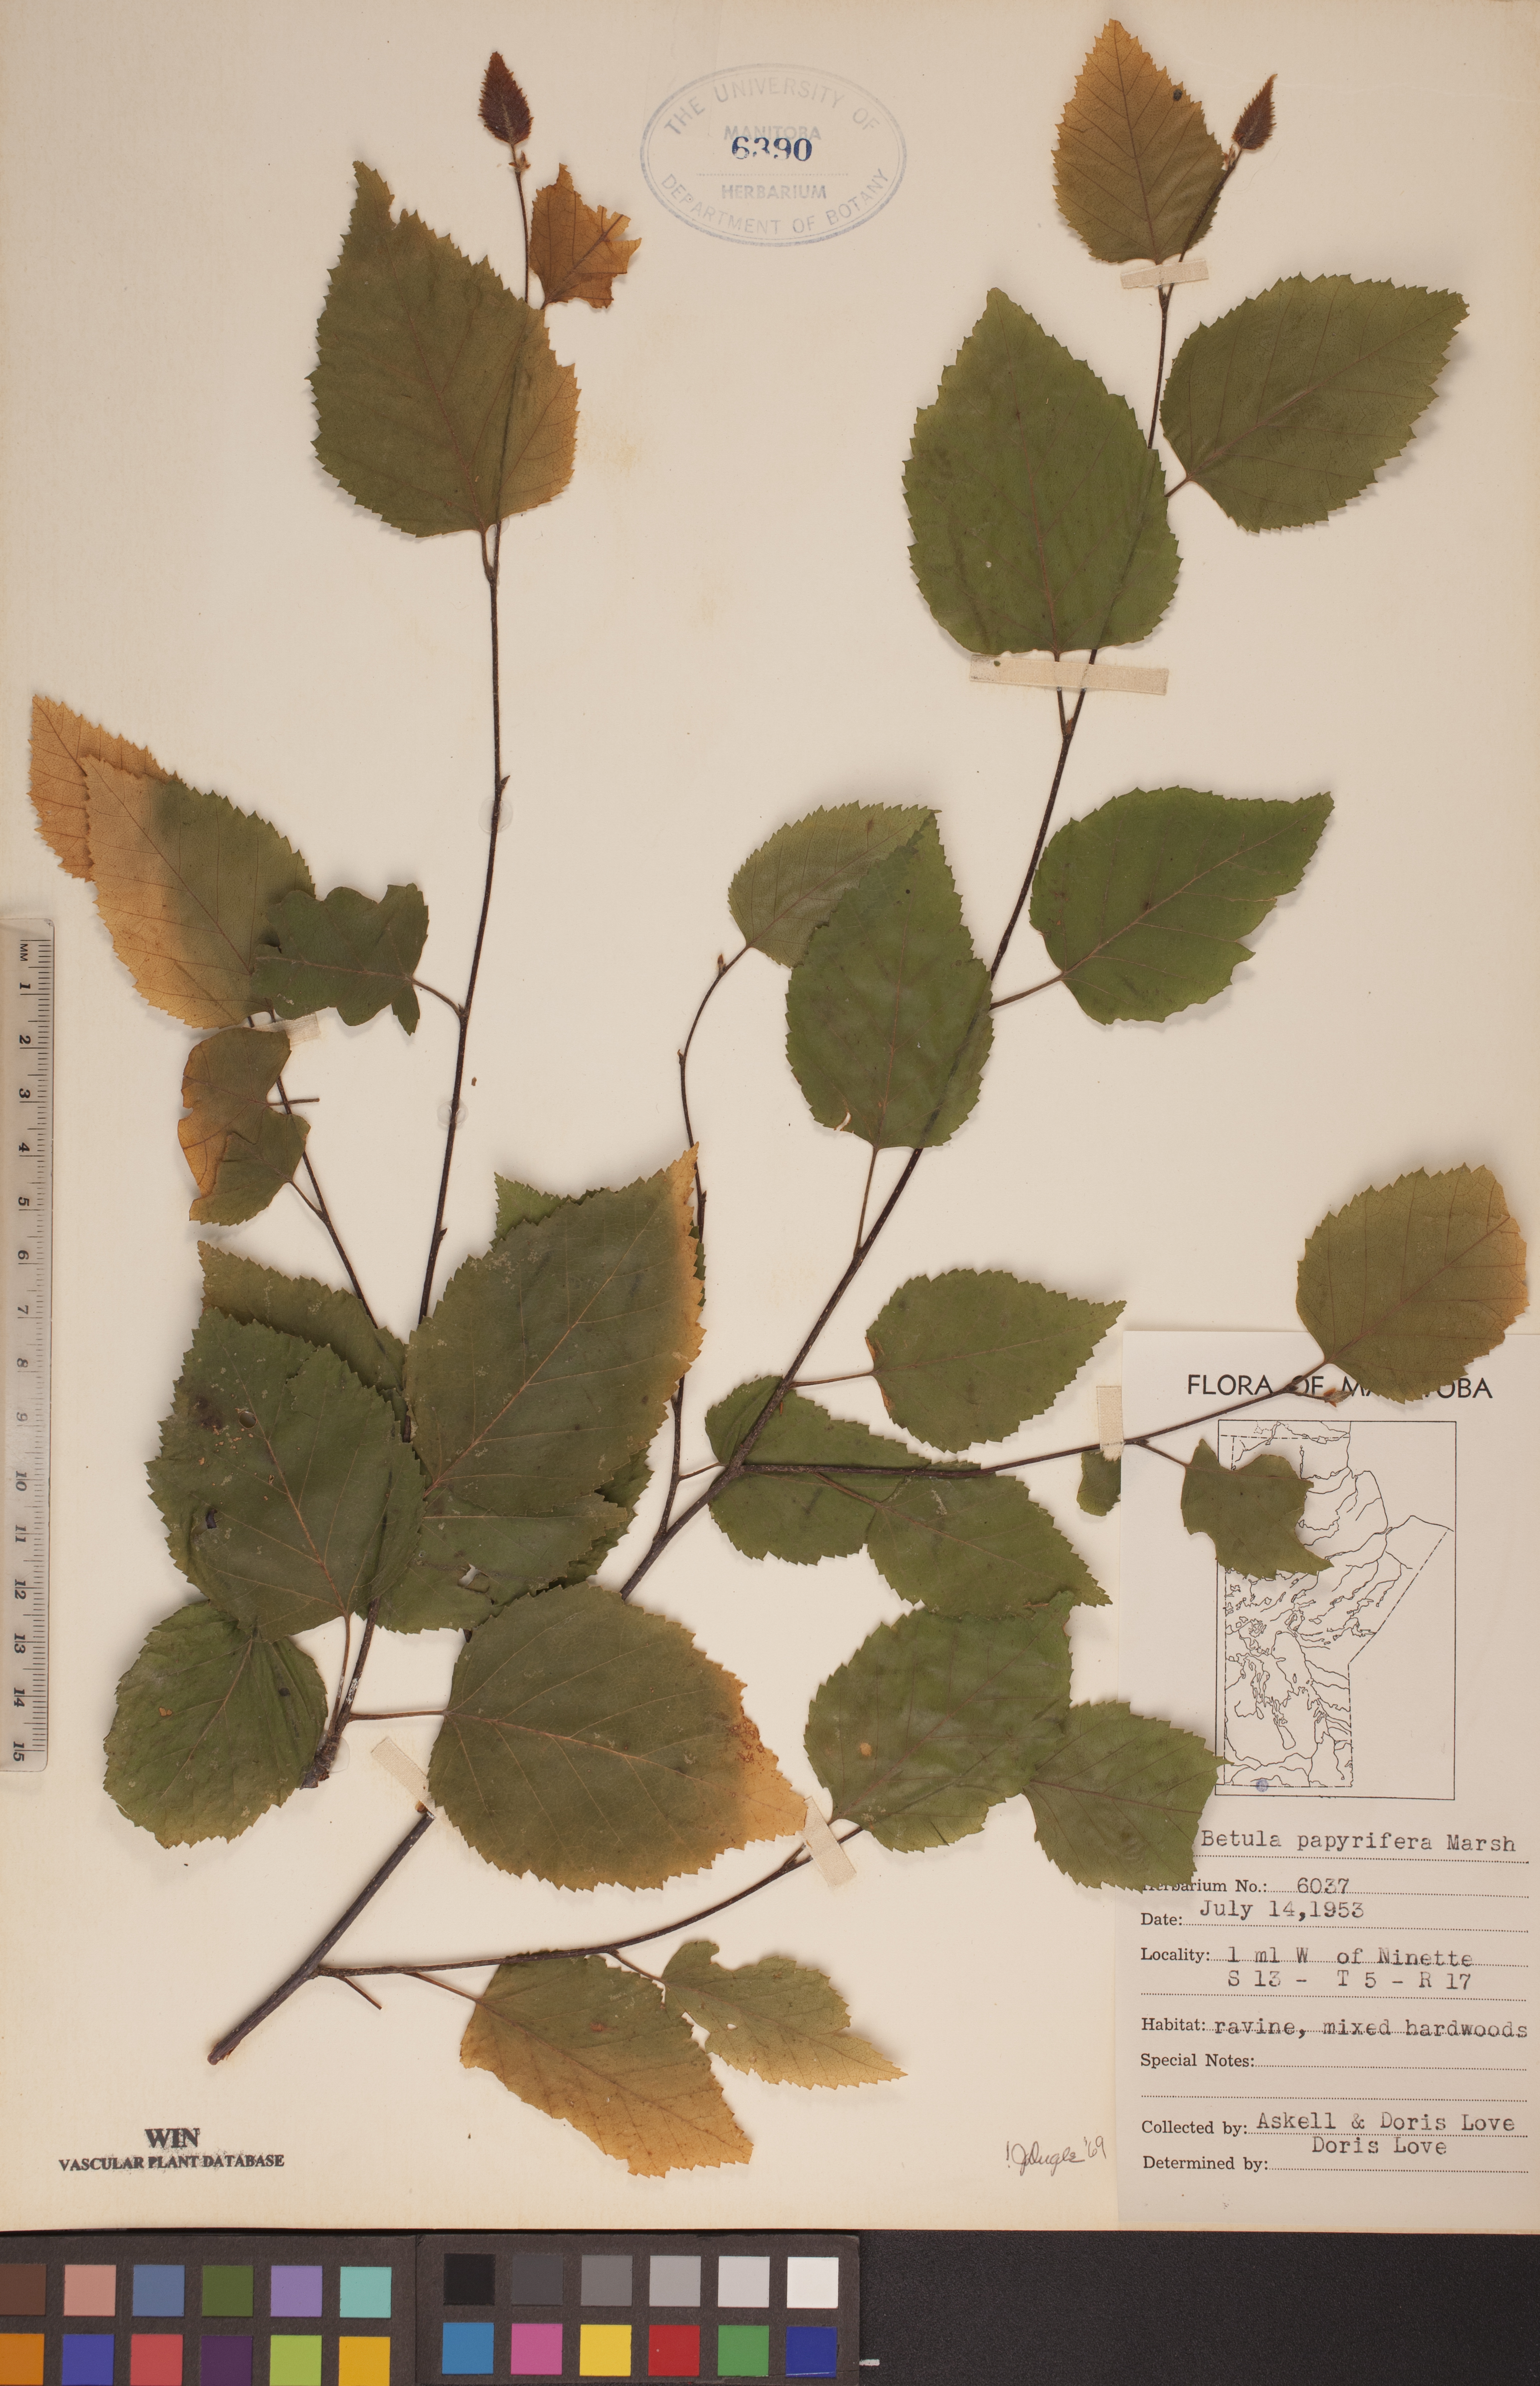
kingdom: Plantae
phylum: Tracheophyta
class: Magnoliopsida
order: Fagales
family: Betulaceae
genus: Betula
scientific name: Betula papyrifera
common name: Paper birch
